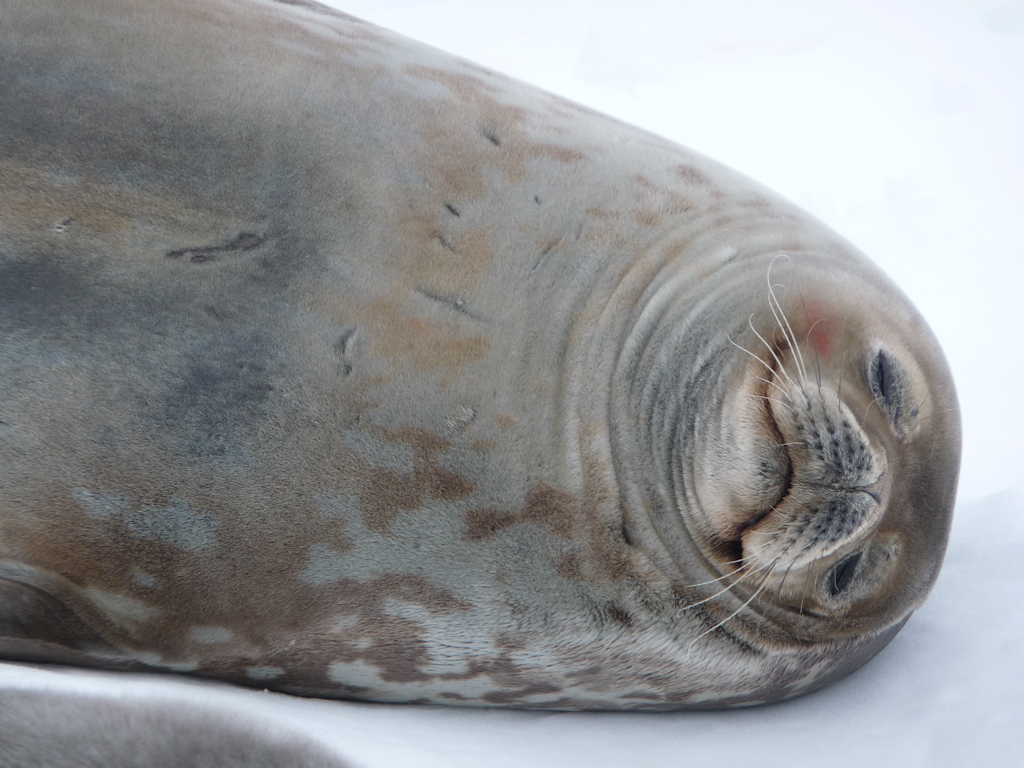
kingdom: Animalia
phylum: Chordata
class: Mammalia
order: Carnivora
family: Phocidae
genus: Leptonychotes
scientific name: Leptonychotes weddellii
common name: Weddell Seal
